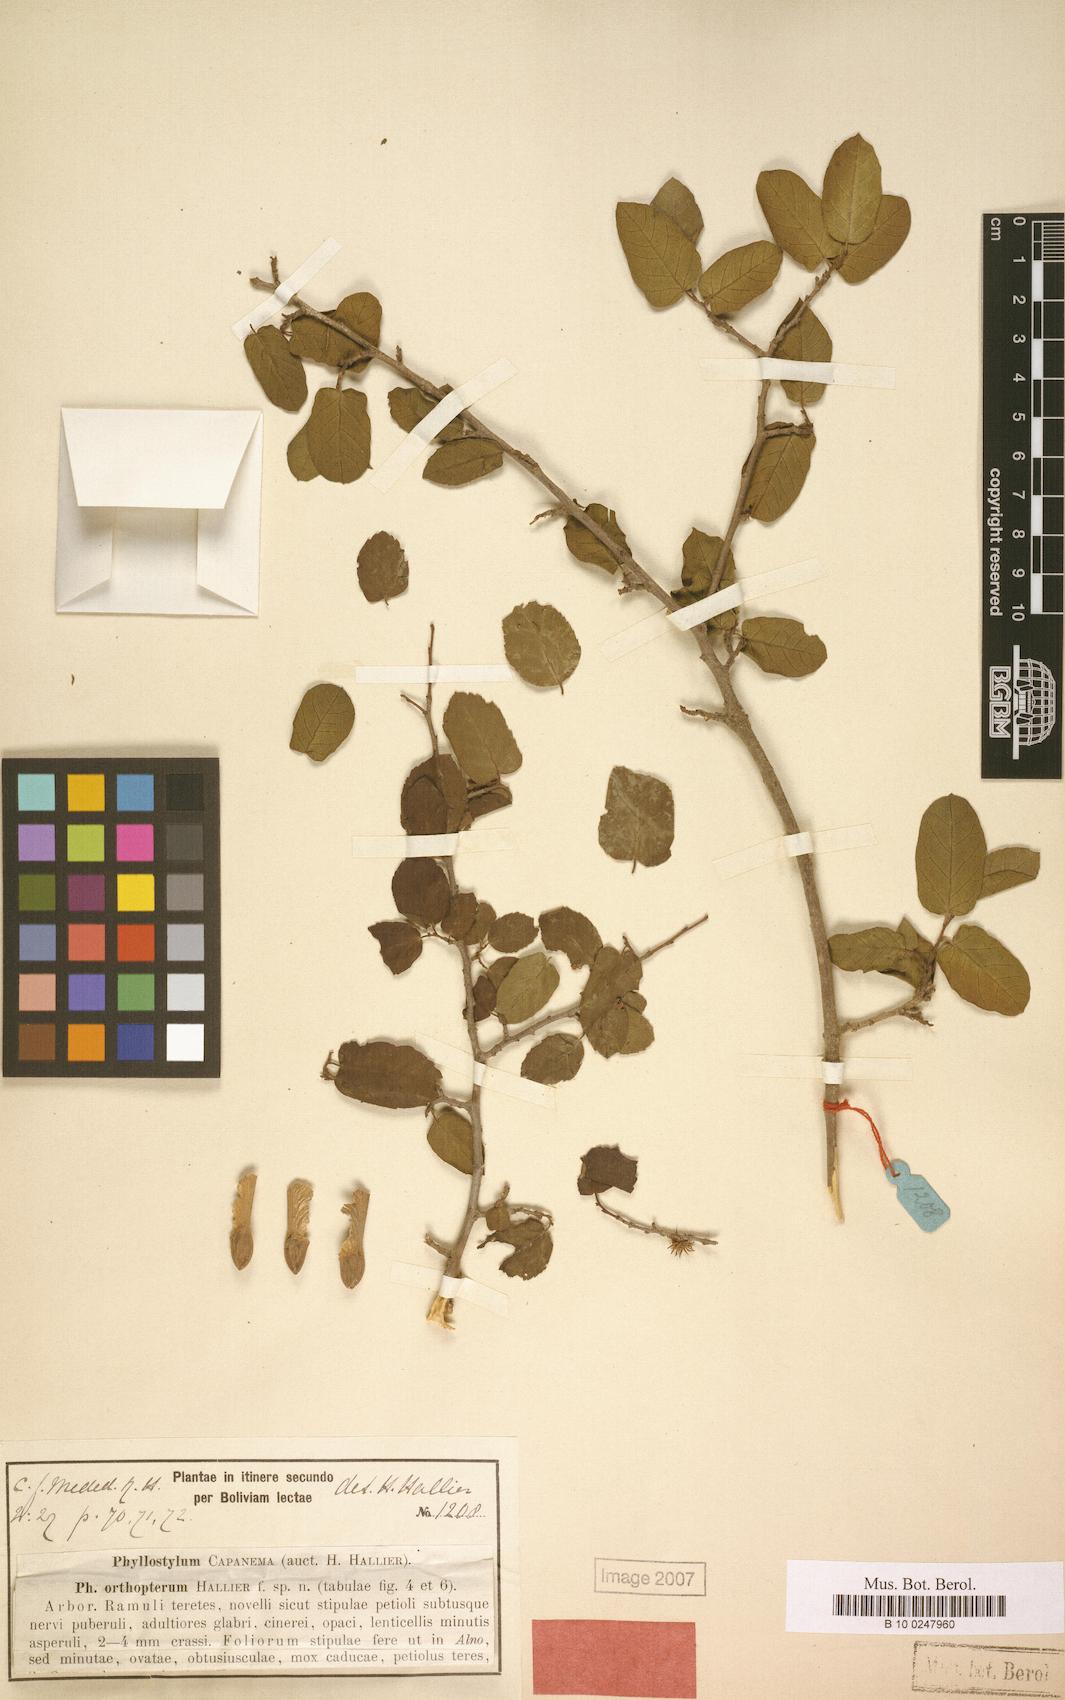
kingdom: Plantae
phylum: Tracheophyta
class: Magnoliopsida
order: Rosales
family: Ulmaceae
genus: Phyllostylon
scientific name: Phyllostylon brasiliensis
